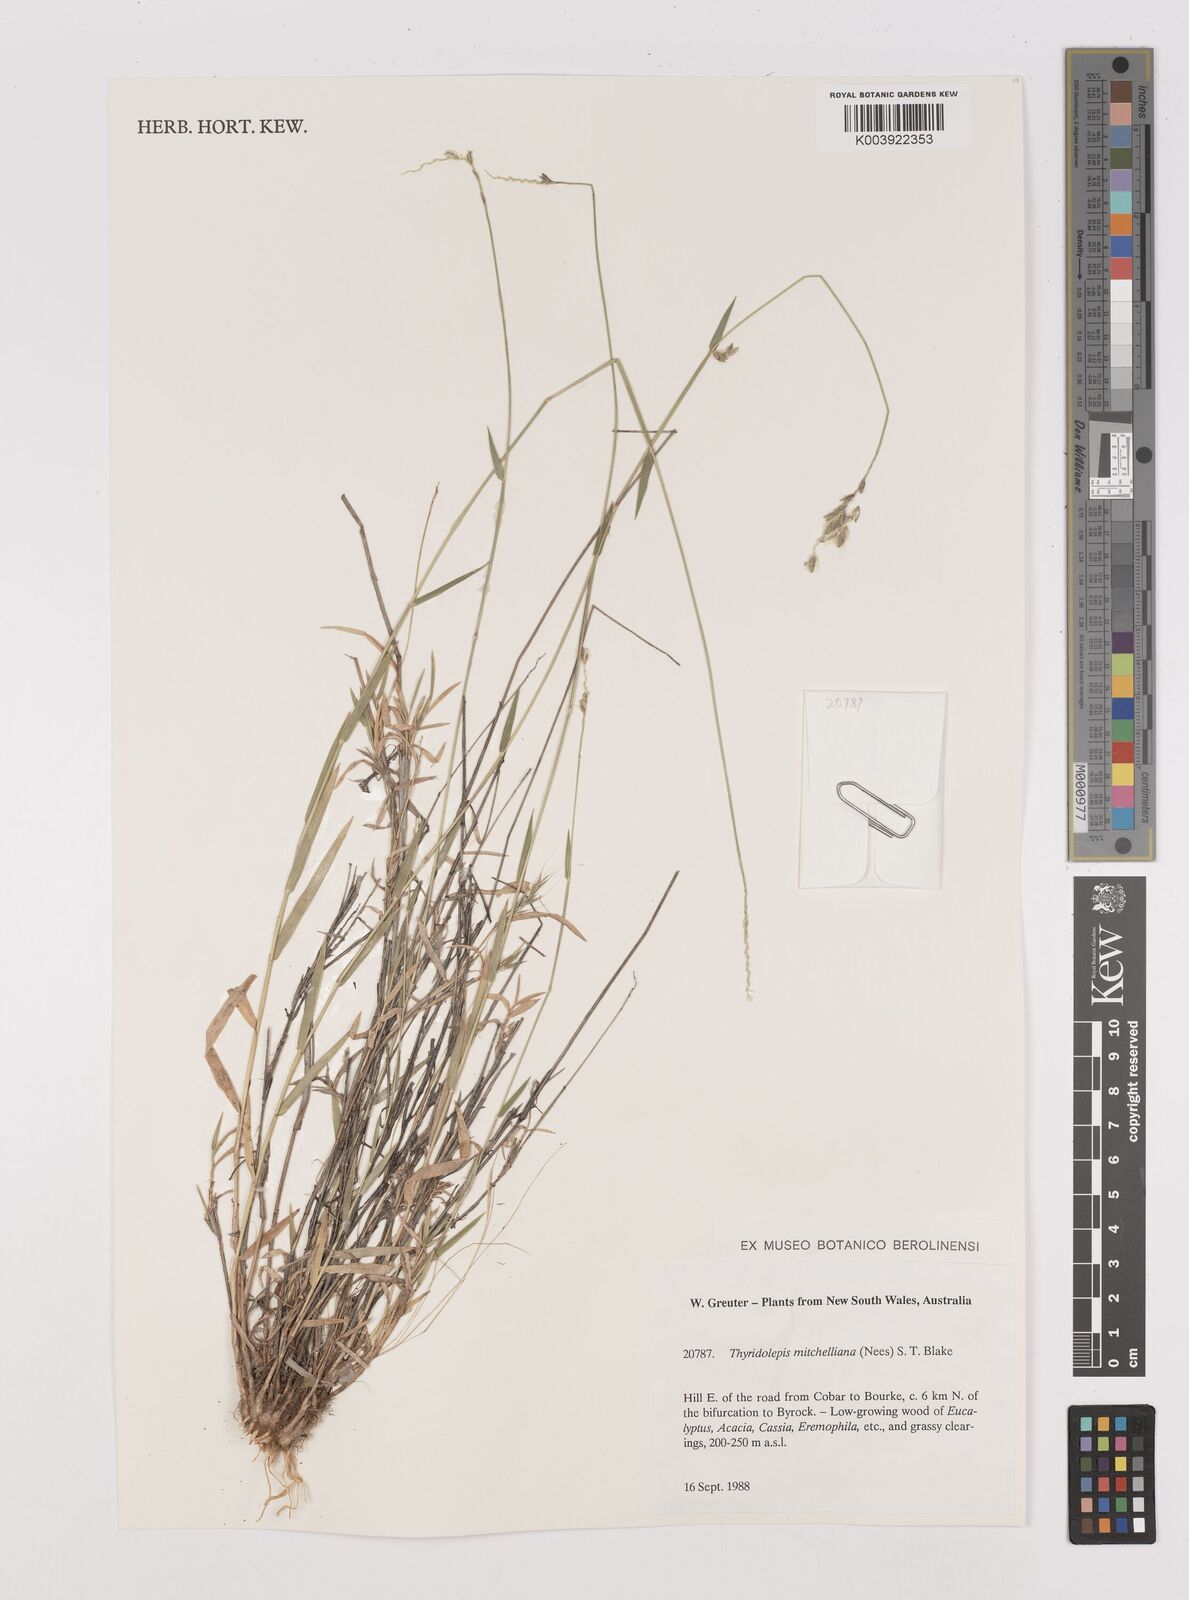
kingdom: Plantae
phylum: Tracheophyta
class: Liliopsida
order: Poales
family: Poaceae
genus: Thyridolepis
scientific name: Thyridolepis mitchelliana
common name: Rock tassel grass
